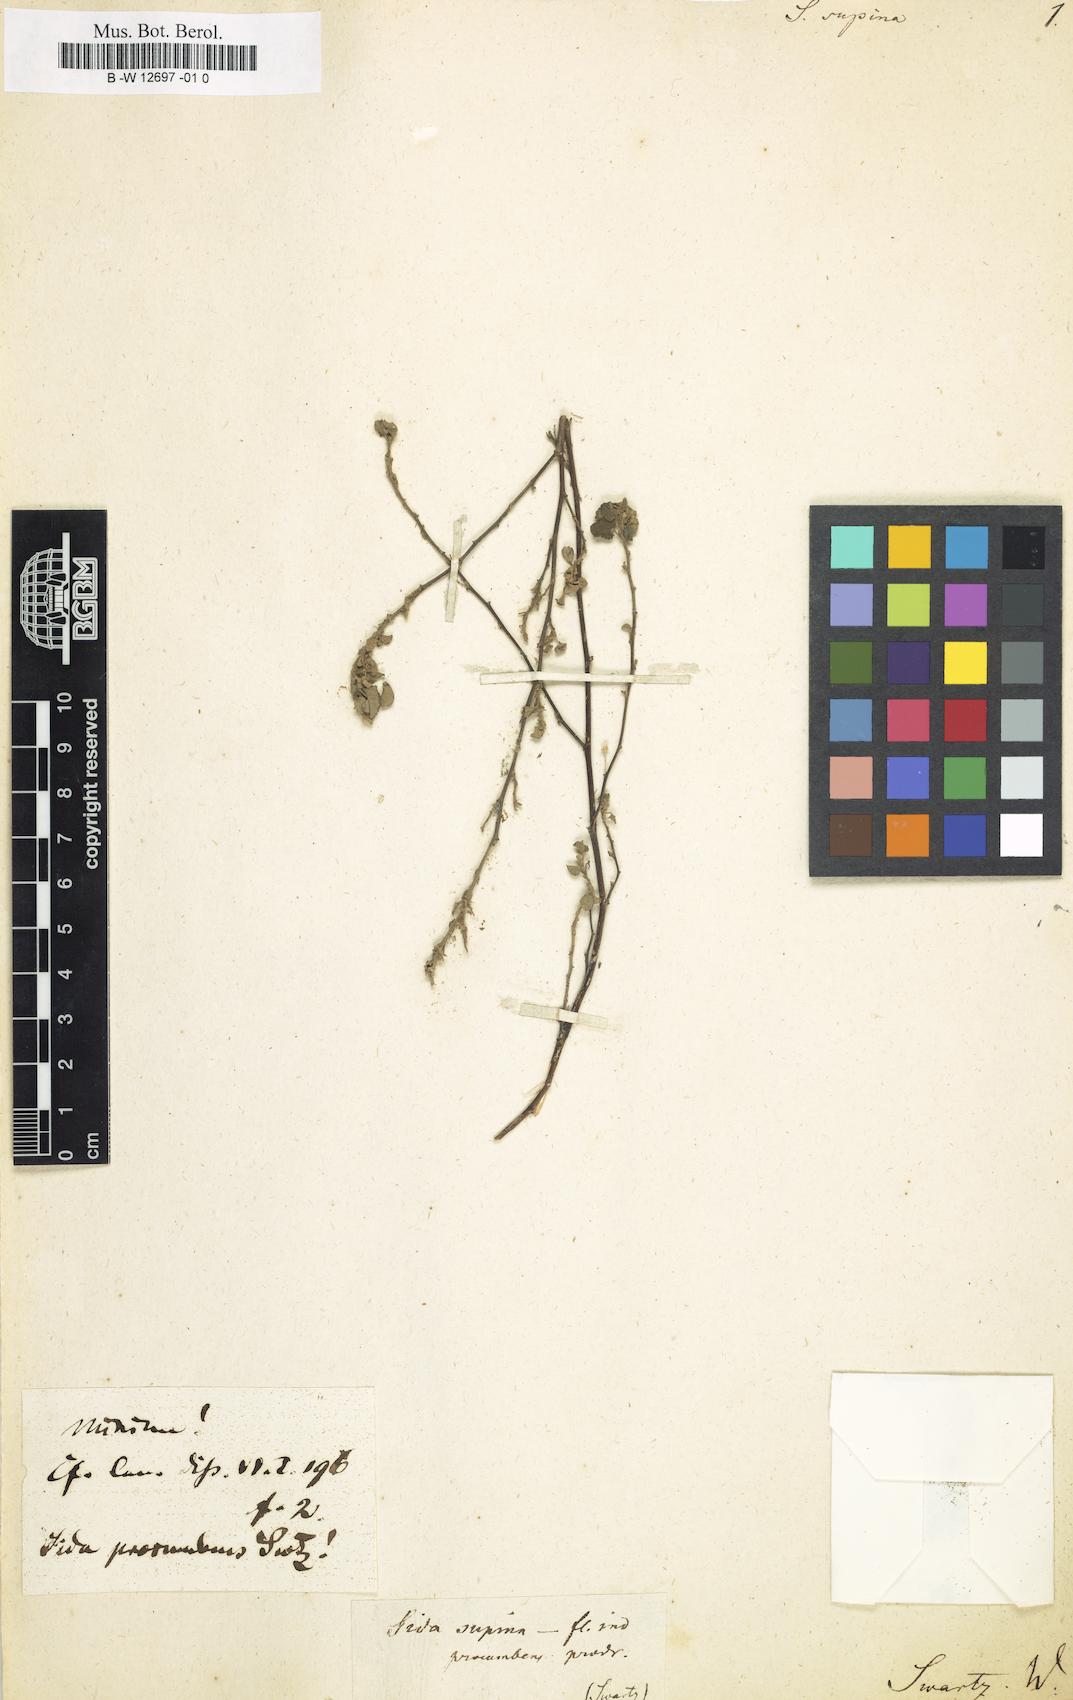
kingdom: Plantae
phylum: Tracheophyta
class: Magnoliopsida
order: Malvales
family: Malvaceae
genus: Sida
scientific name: Sida abutilifolia
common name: Spreading fanpetals
